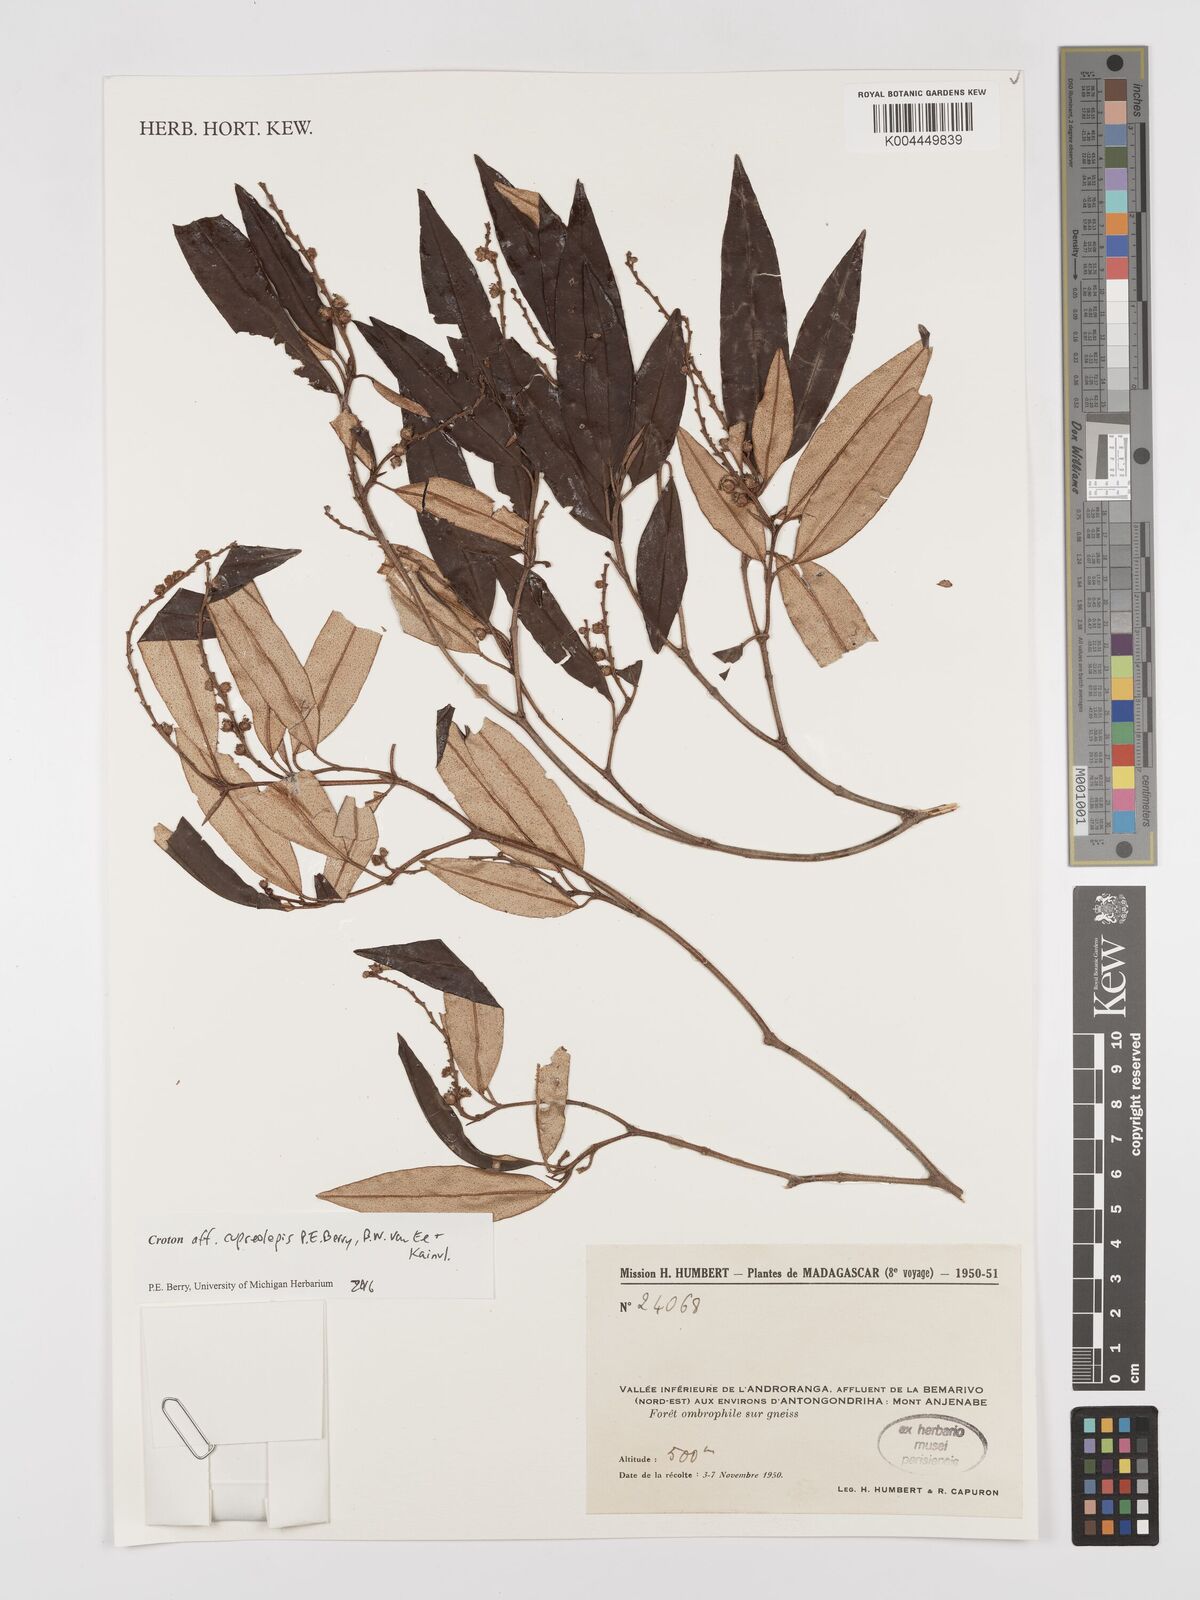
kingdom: Plantae
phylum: Tracheophyta
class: Magnoliopsida
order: Malpighiales
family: Euphorbiaceae
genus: Croton
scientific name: Croton cupreolepis
